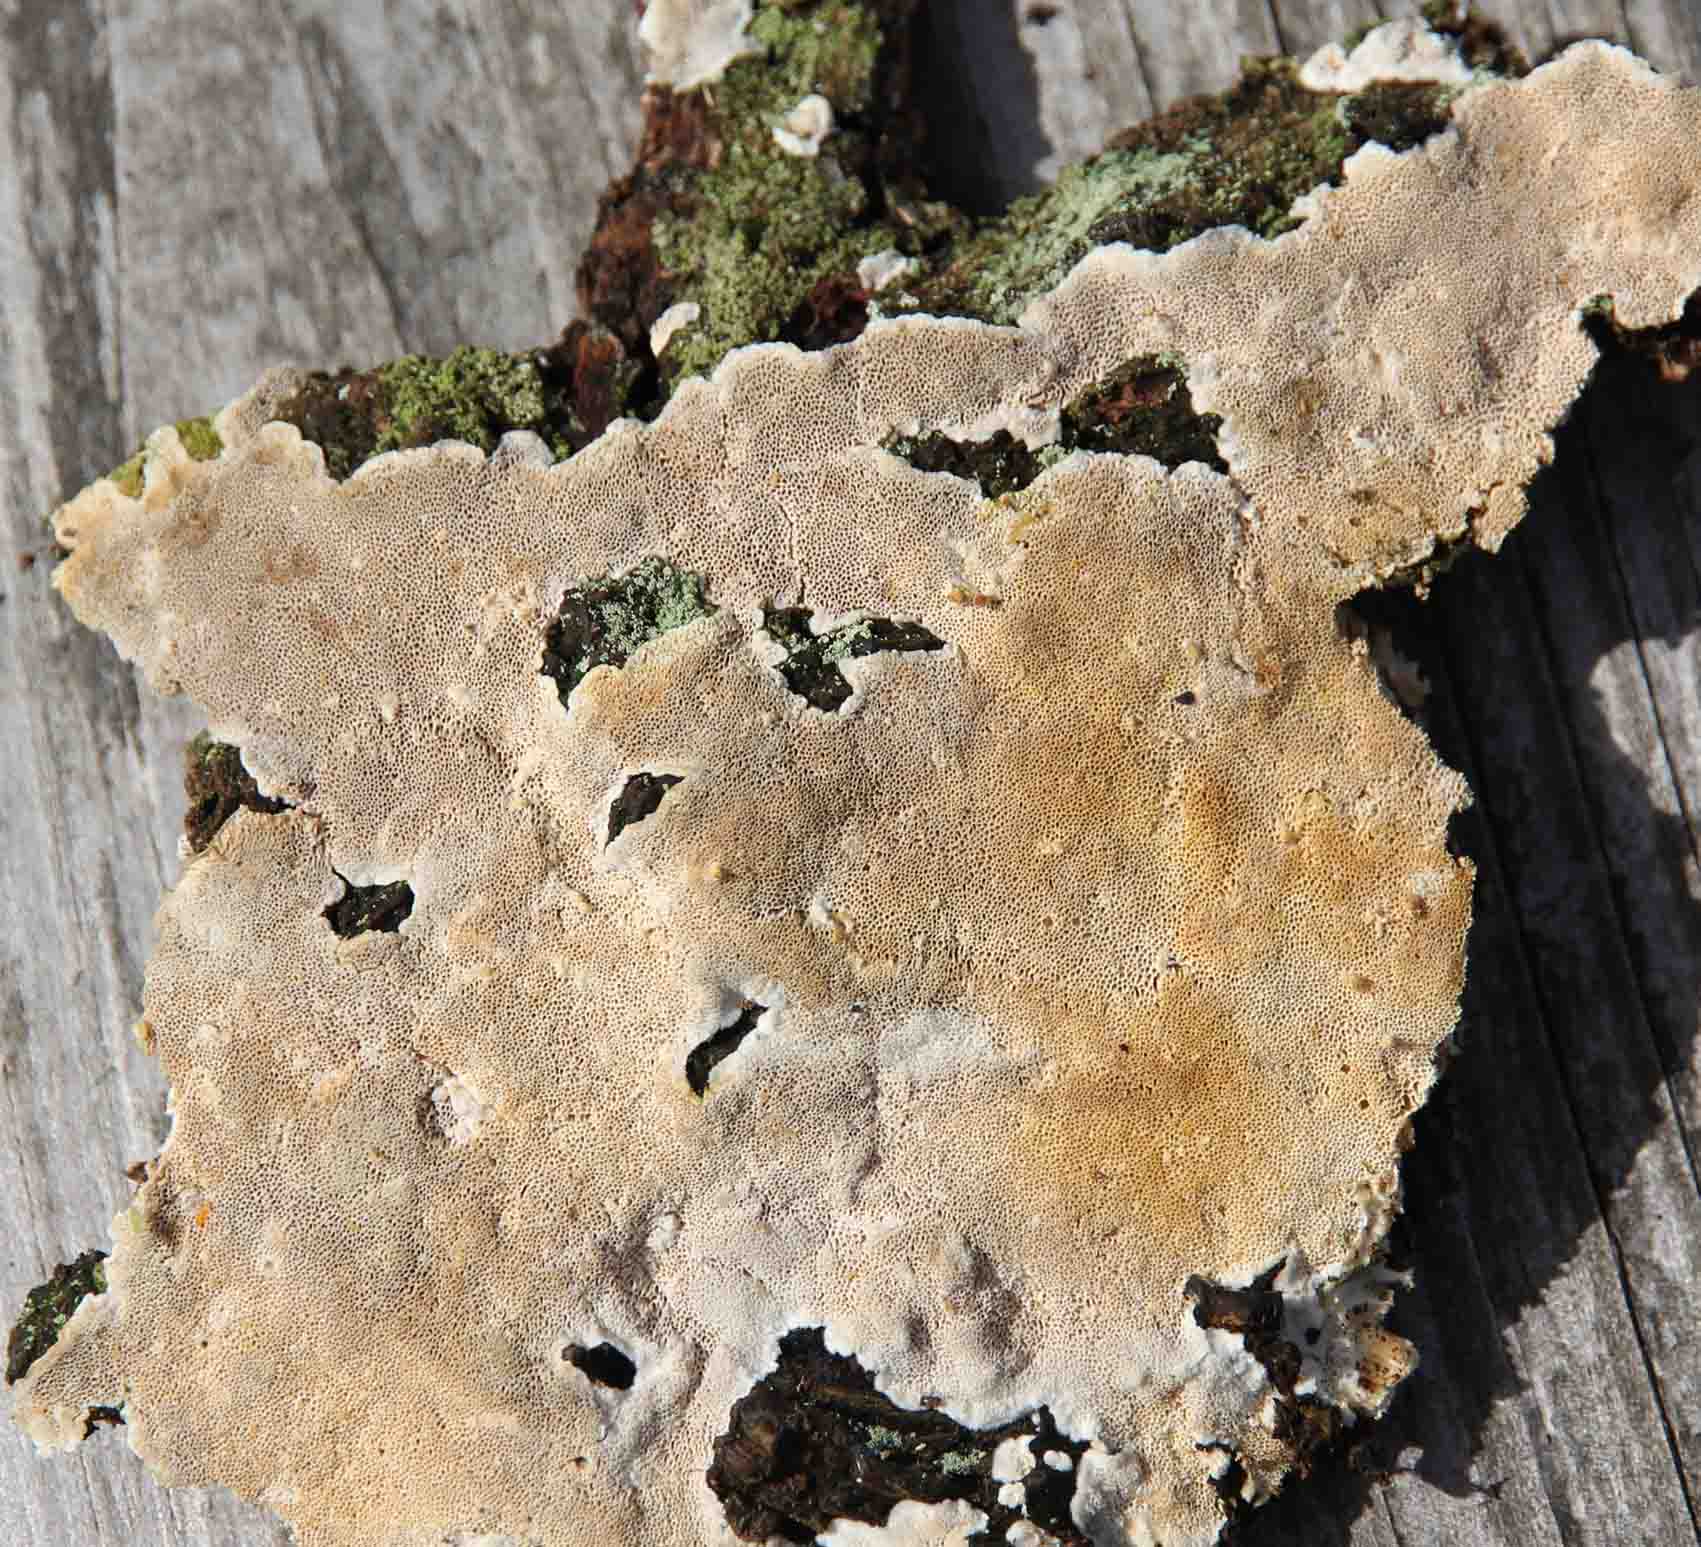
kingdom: Fungi
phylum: Basidiomycota
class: Agaricomycetes
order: Polyporales
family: Gelatoporiaceae
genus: Cinereomyces
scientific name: Cinereomyces lindbladii
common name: almindelig gråporesvamp
